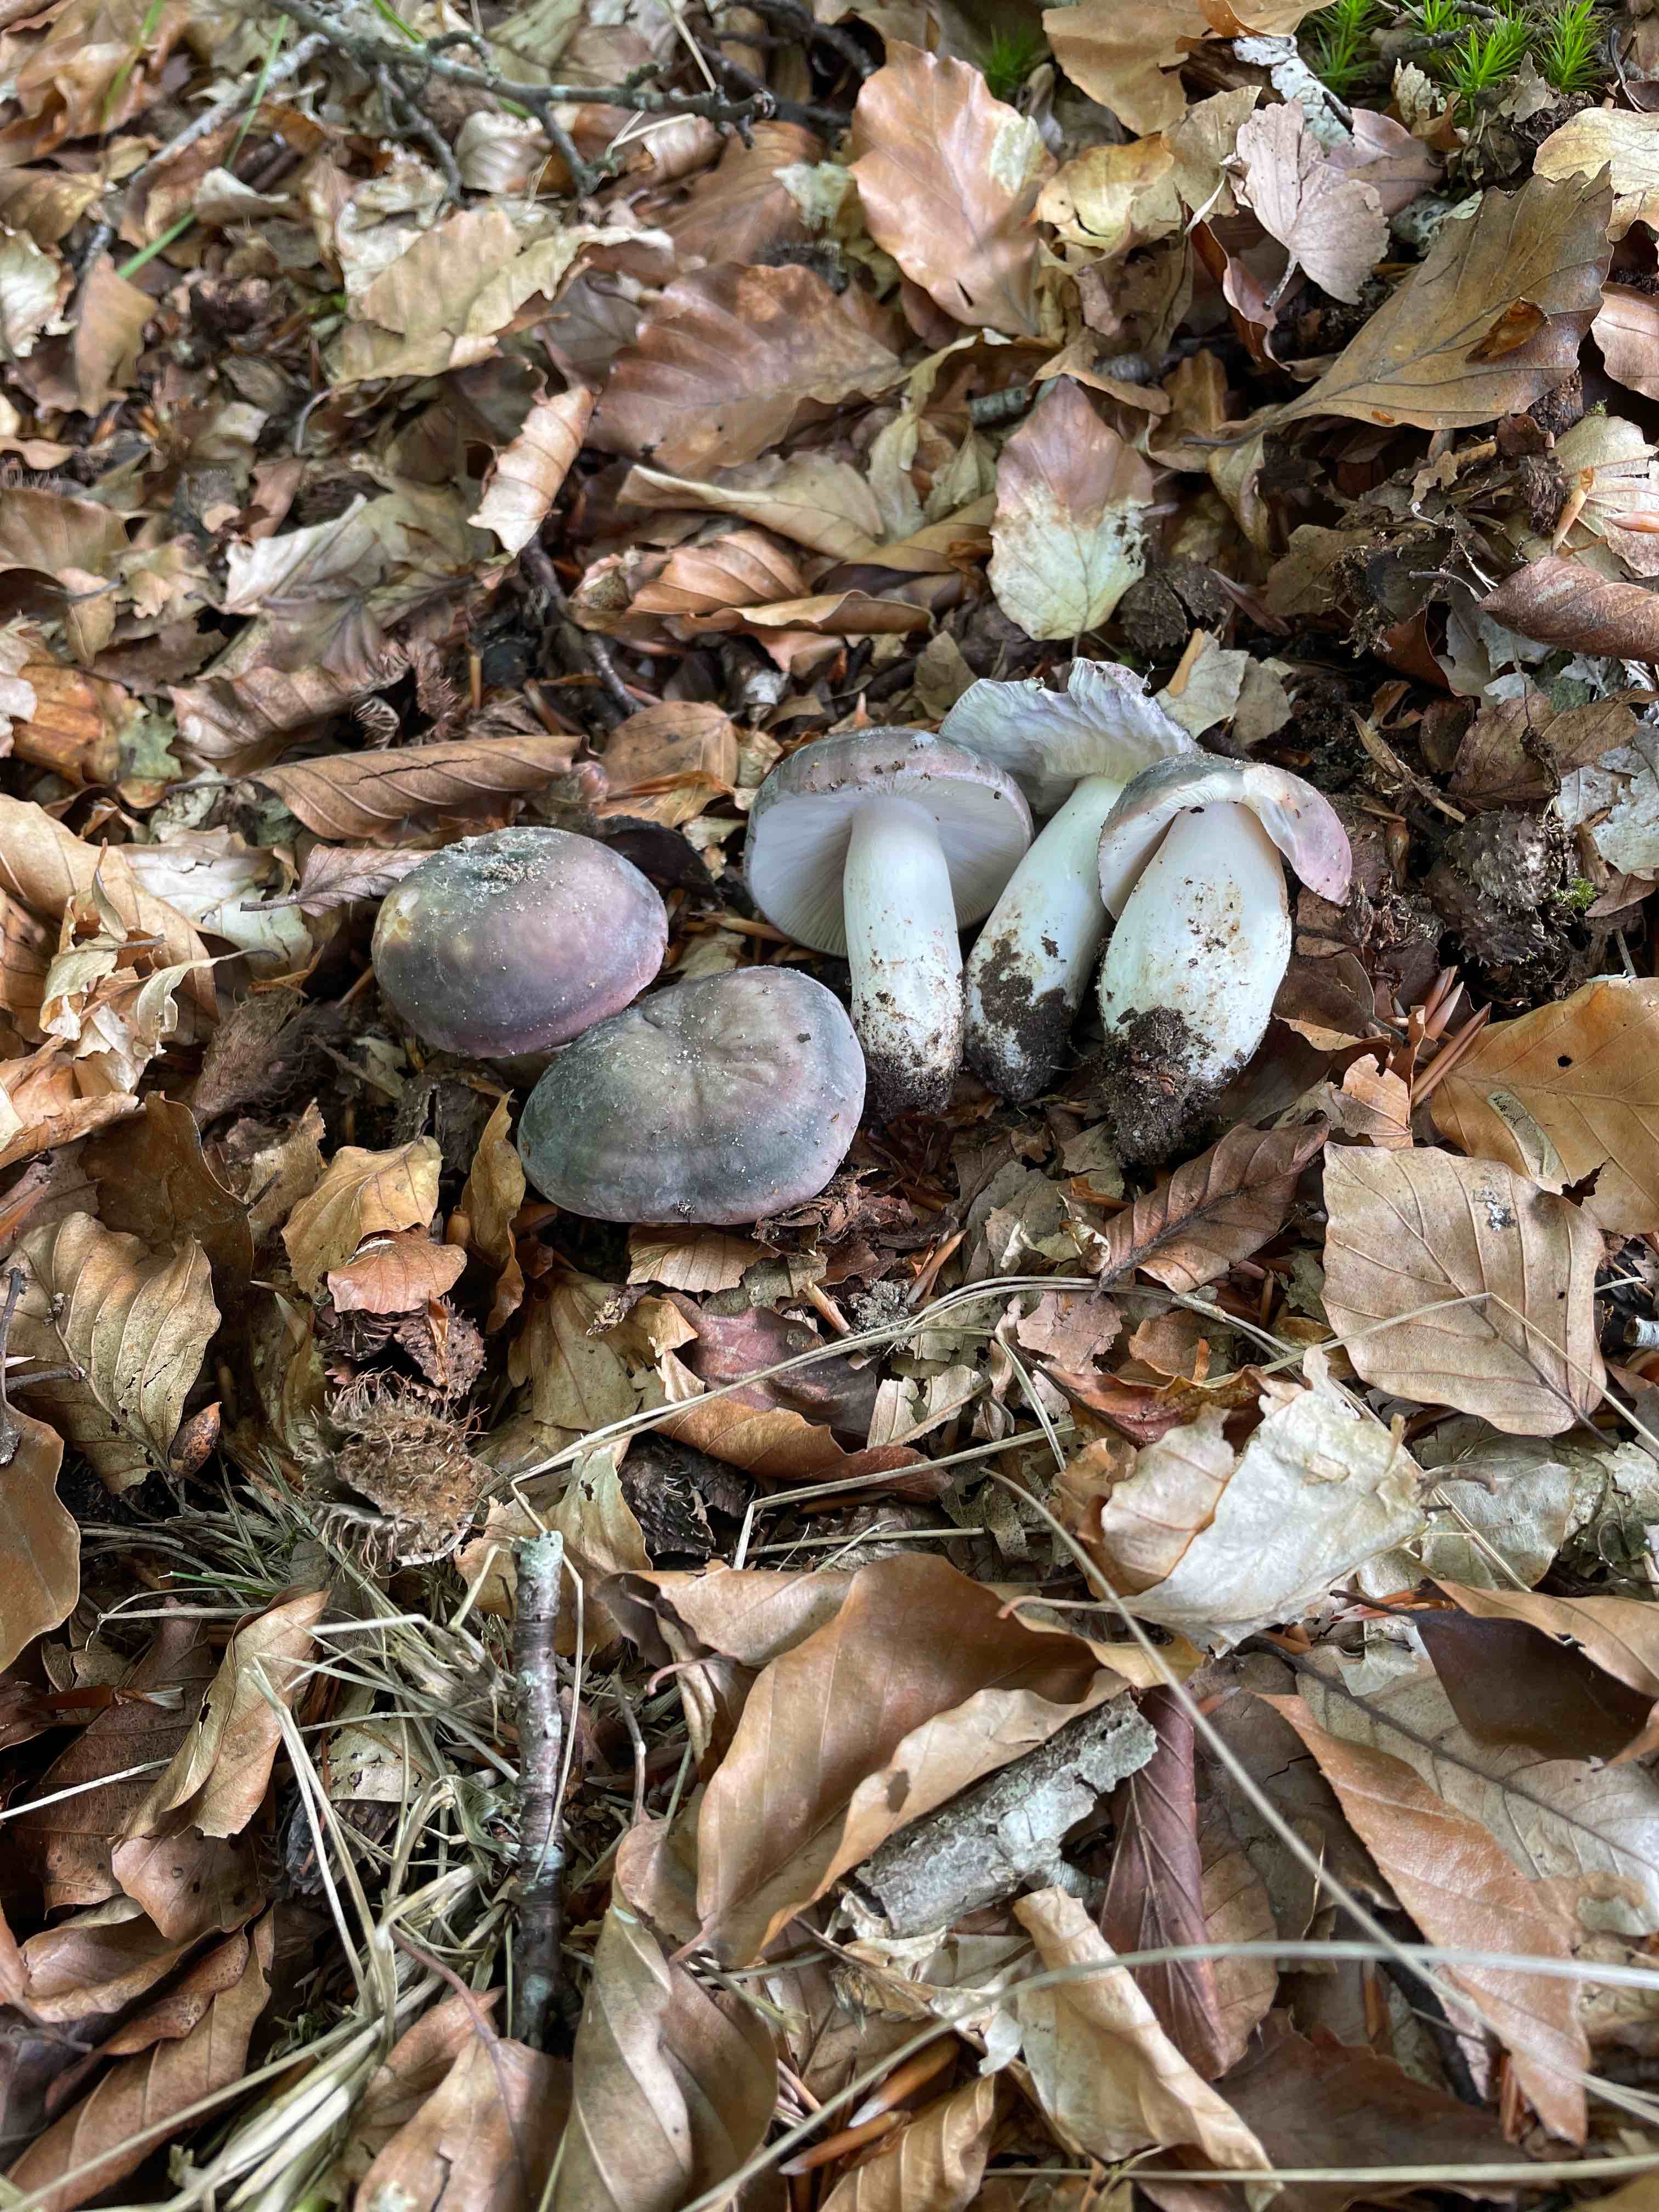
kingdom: Fungi
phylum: Basidiomycota
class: Agaricomycetes
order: Russulales
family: Russulaceae
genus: Russula
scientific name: Russula cyanoxantha
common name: broget skørhat
